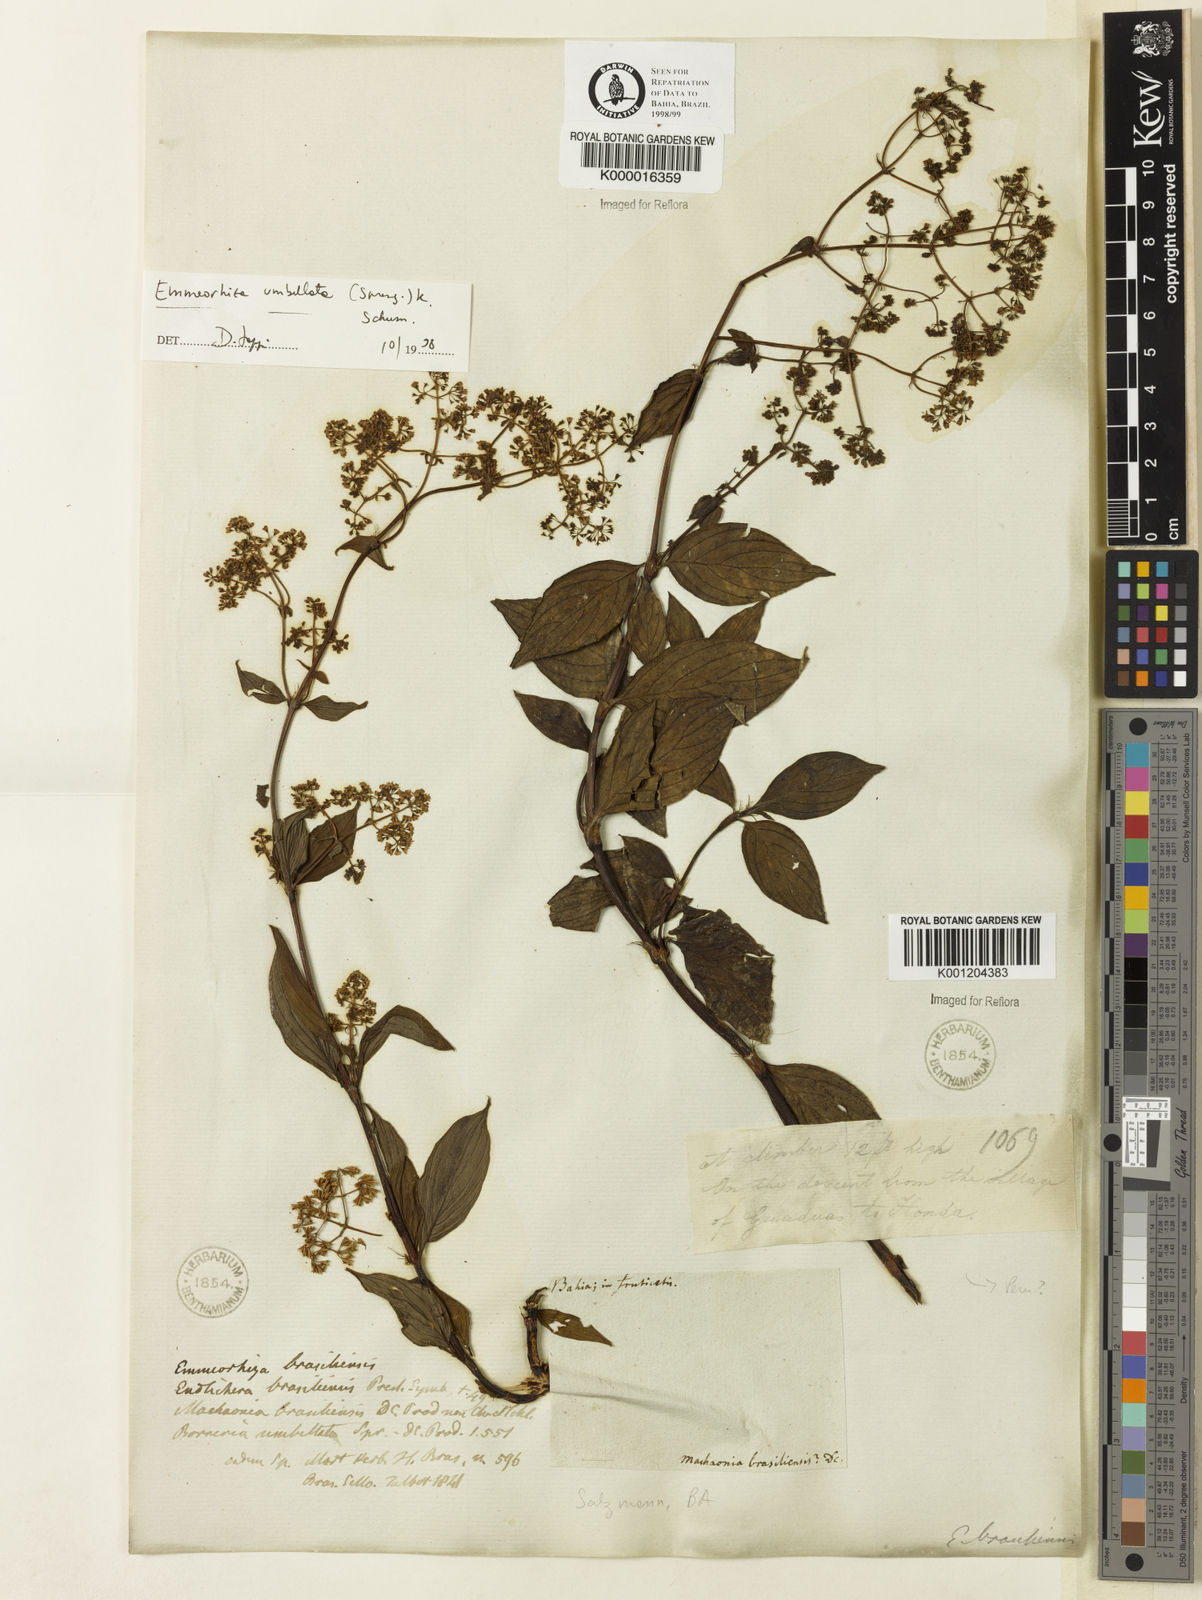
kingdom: Plantae
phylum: Tracheophyta
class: Magnoliopsida
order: Gentianales
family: Rubiaceae
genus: Emmeorhiza
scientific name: Emmeorhiza umbellata
